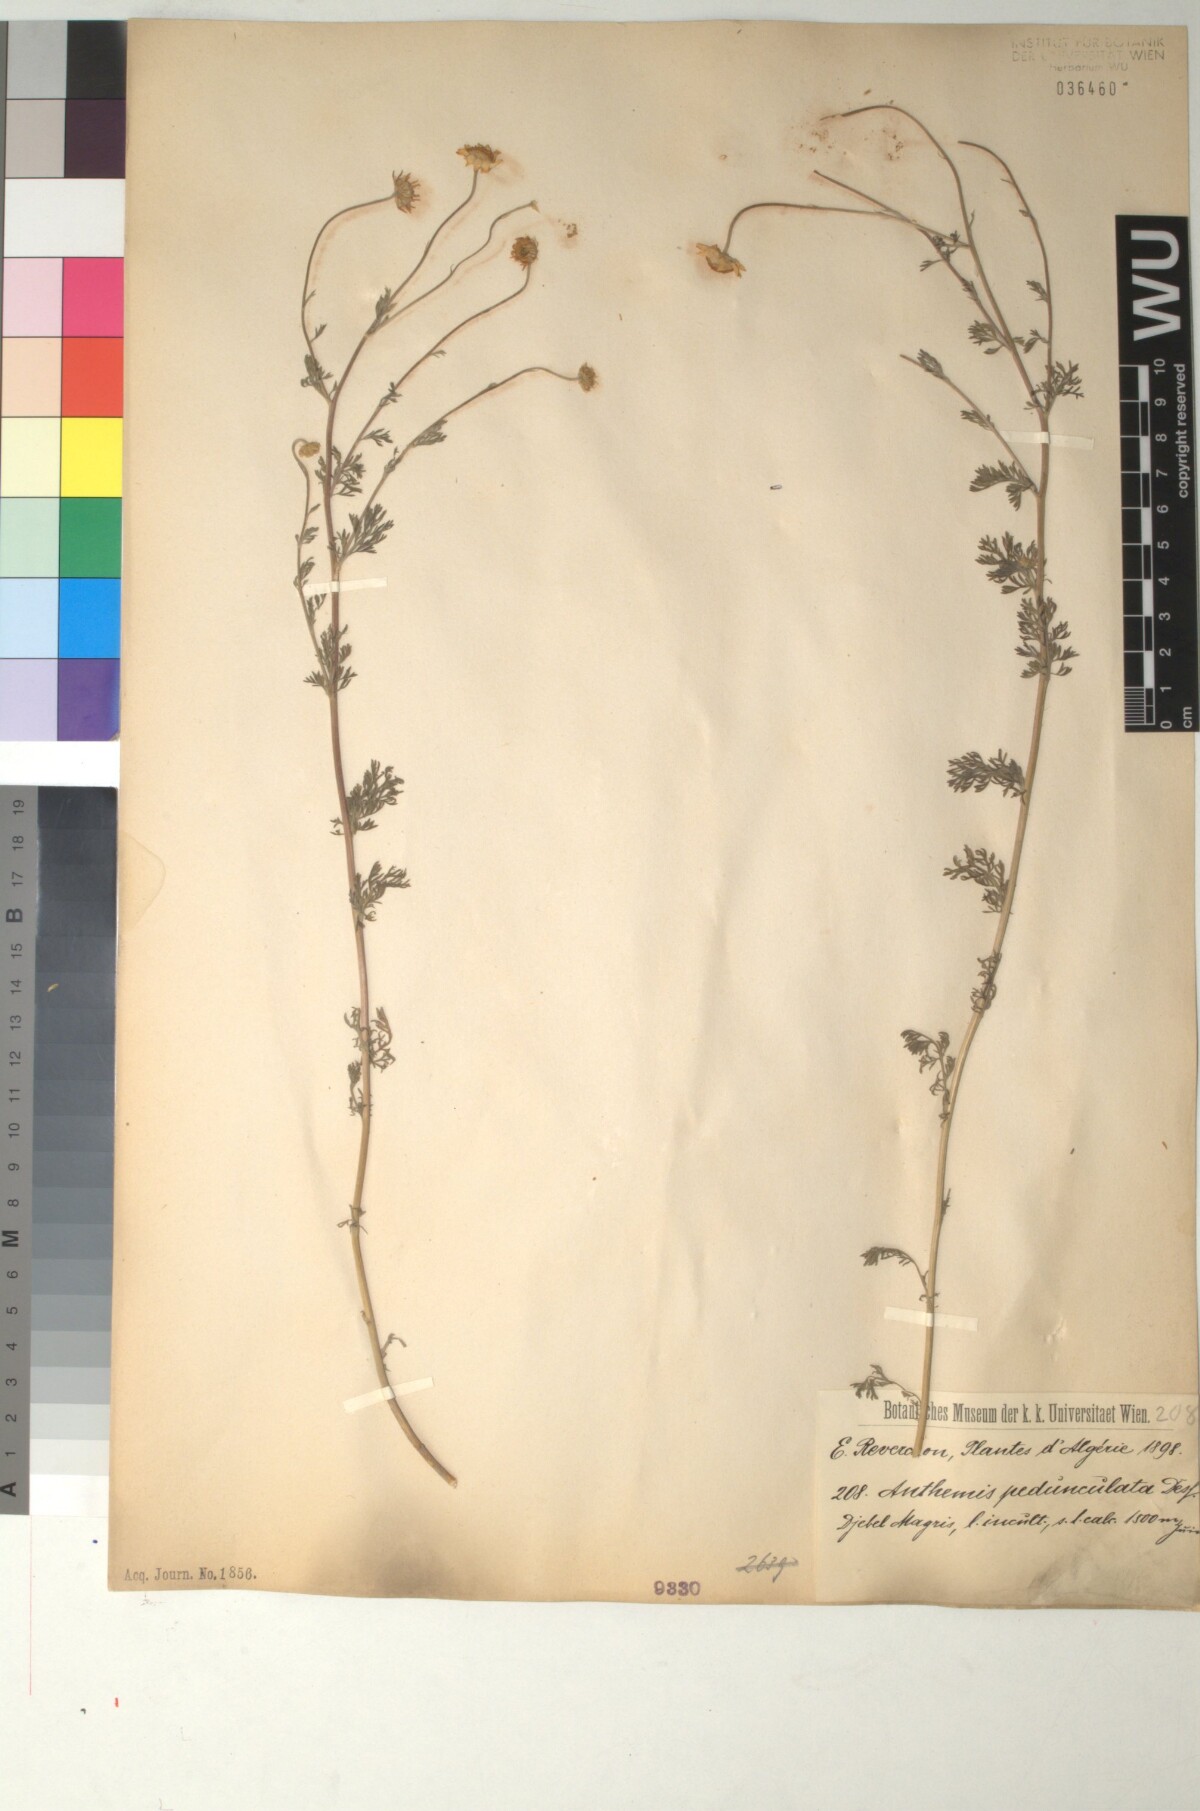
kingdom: Plantae
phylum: Tracheophyta
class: Magnoliopsida
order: Asterales
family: Asteraceae
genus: Anthemis
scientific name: Anthemis pedunculata
